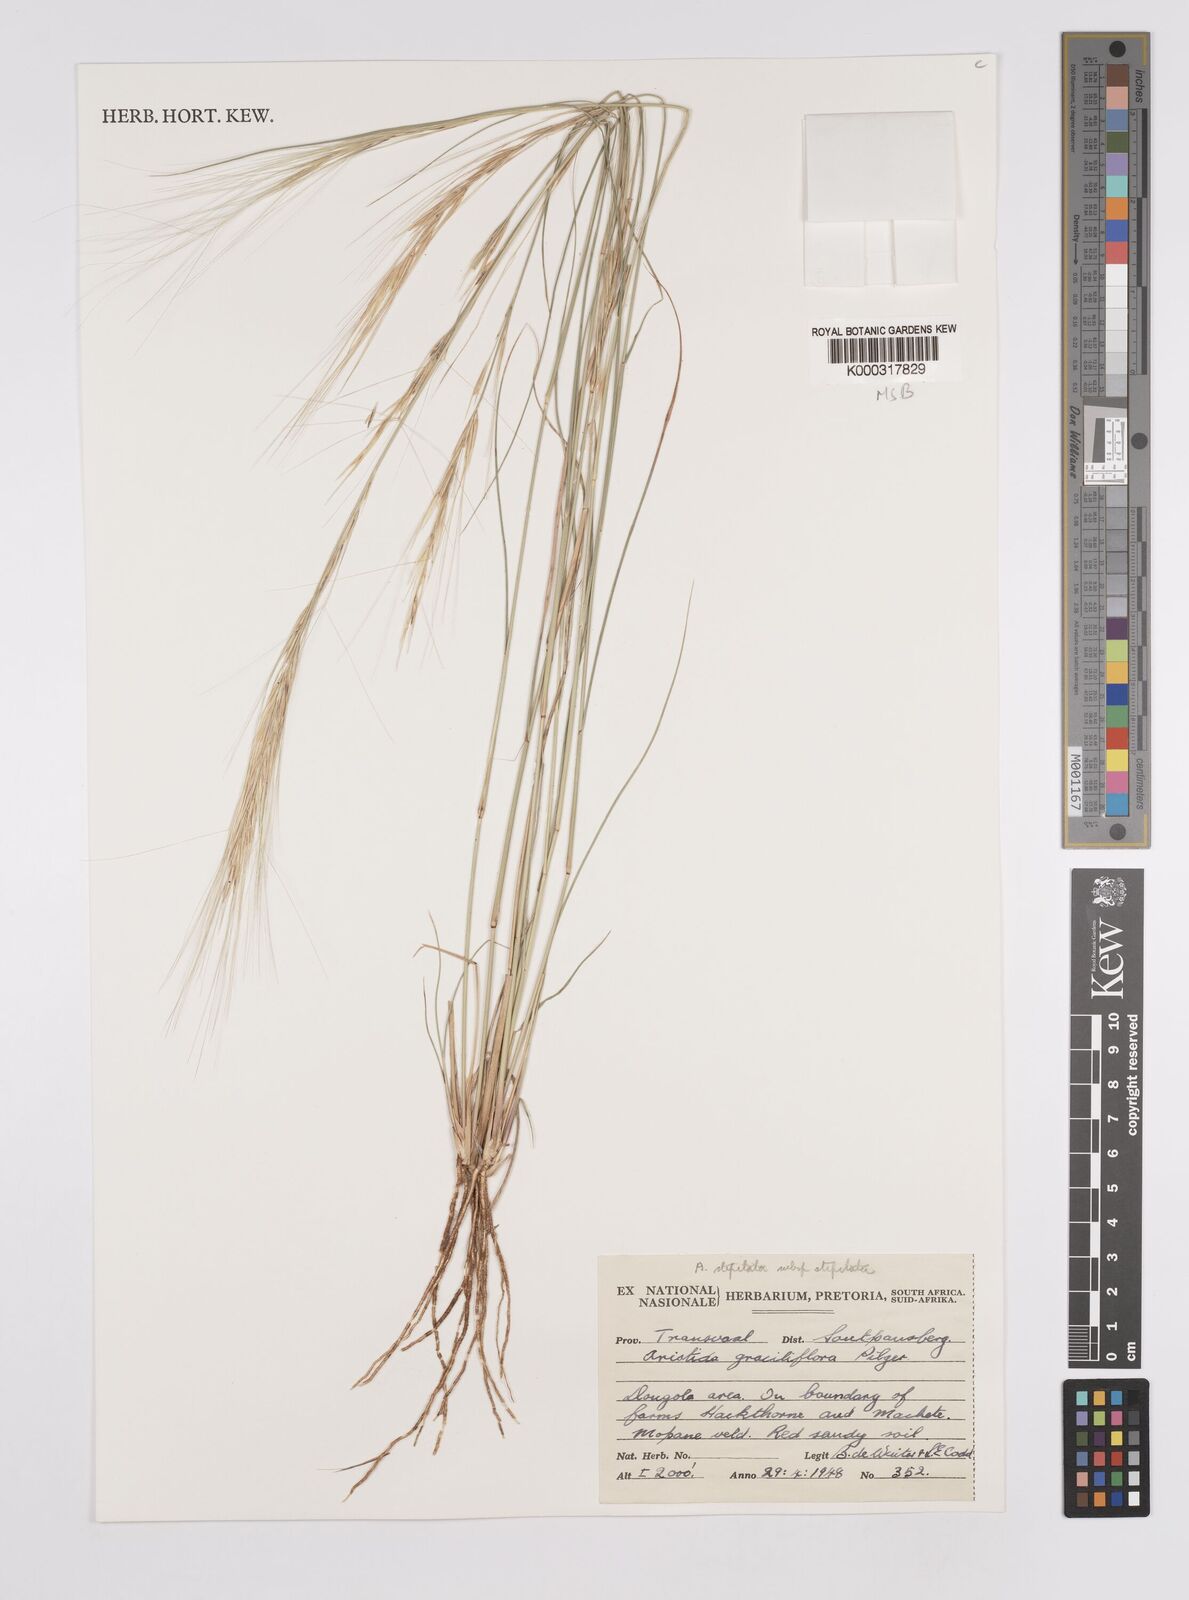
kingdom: Plantae
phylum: Tracheophyta
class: Liliopsida
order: Poales
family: Poaceae
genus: Aristida
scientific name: Aristida stipitata
